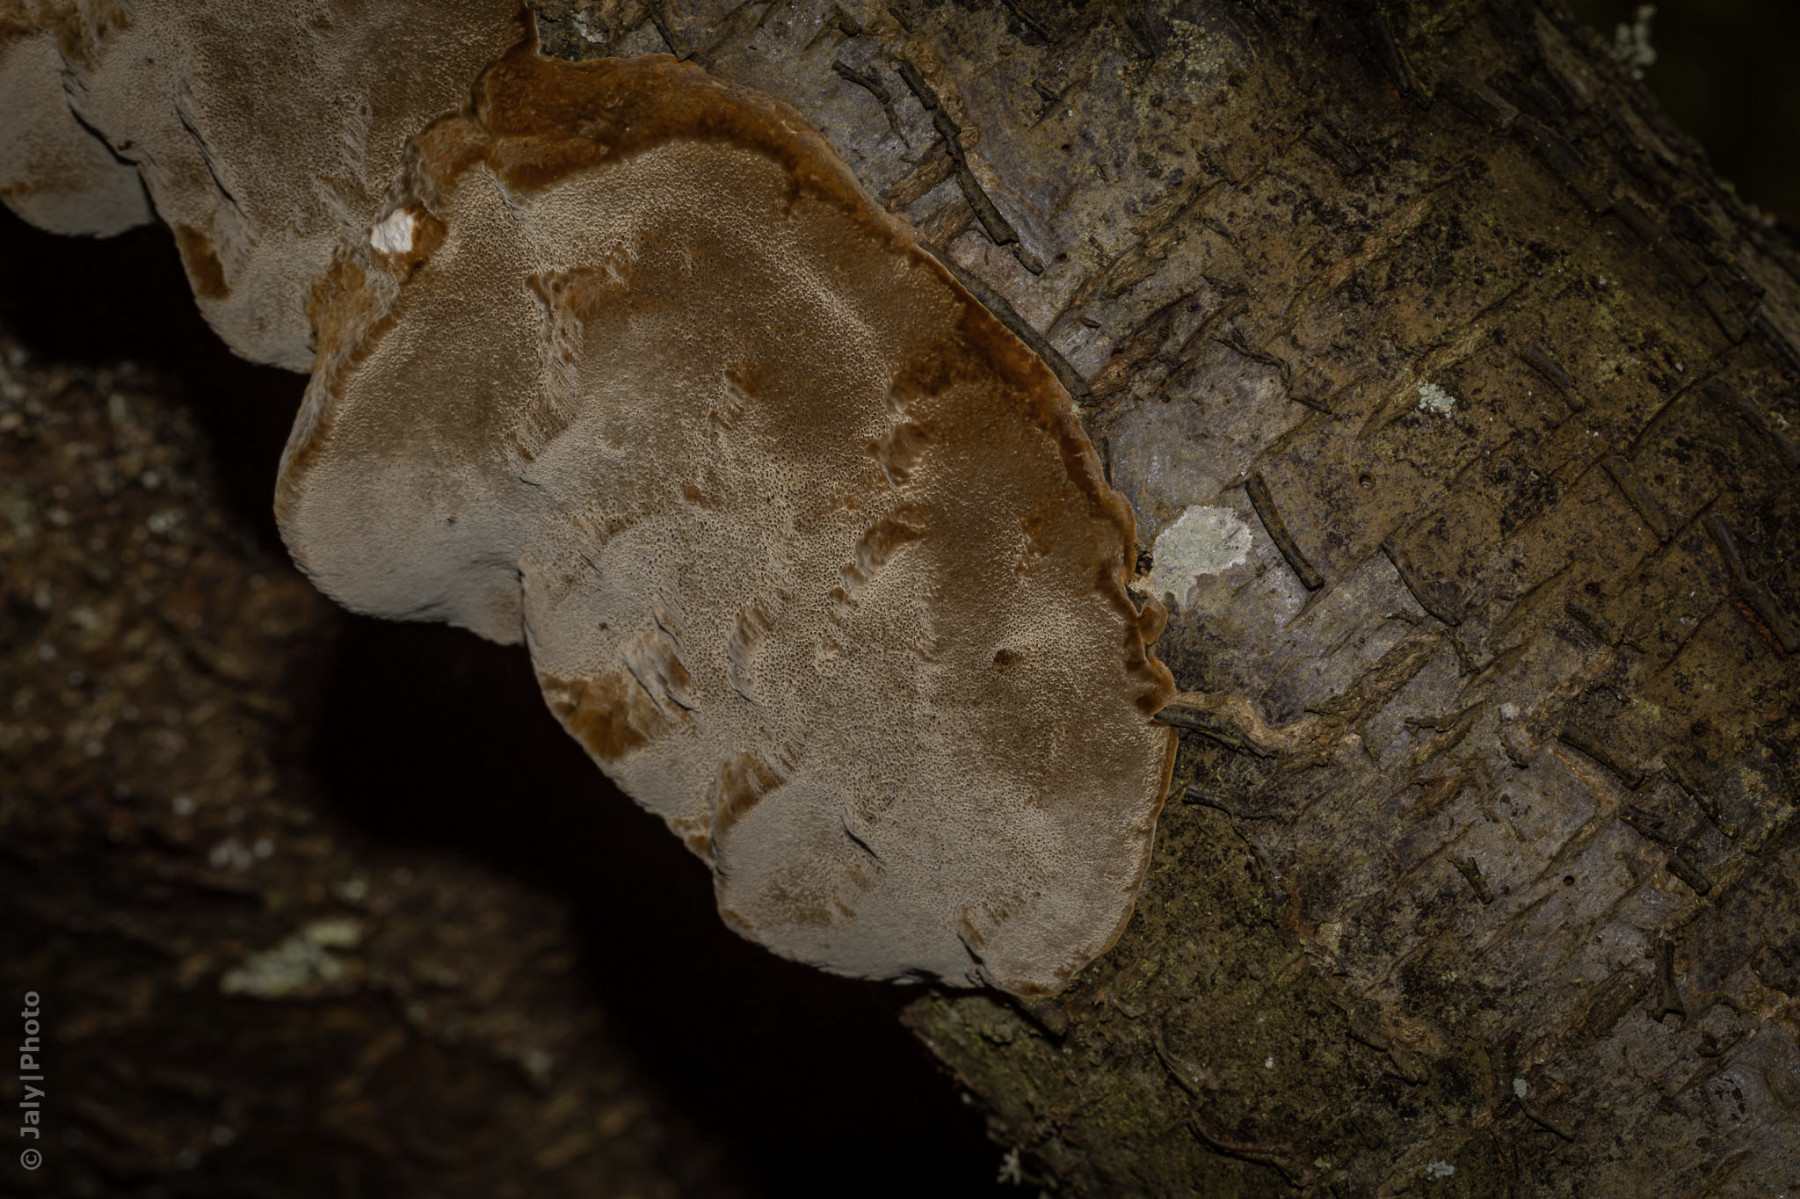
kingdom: Fungi
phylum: Basidiomycota
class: Agaricomycetes
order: Hymenochaetales
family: Hymenochaetaceae
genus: Phellinus
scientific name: Phellinus pomaceus
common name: blomme-ildporesvamp
